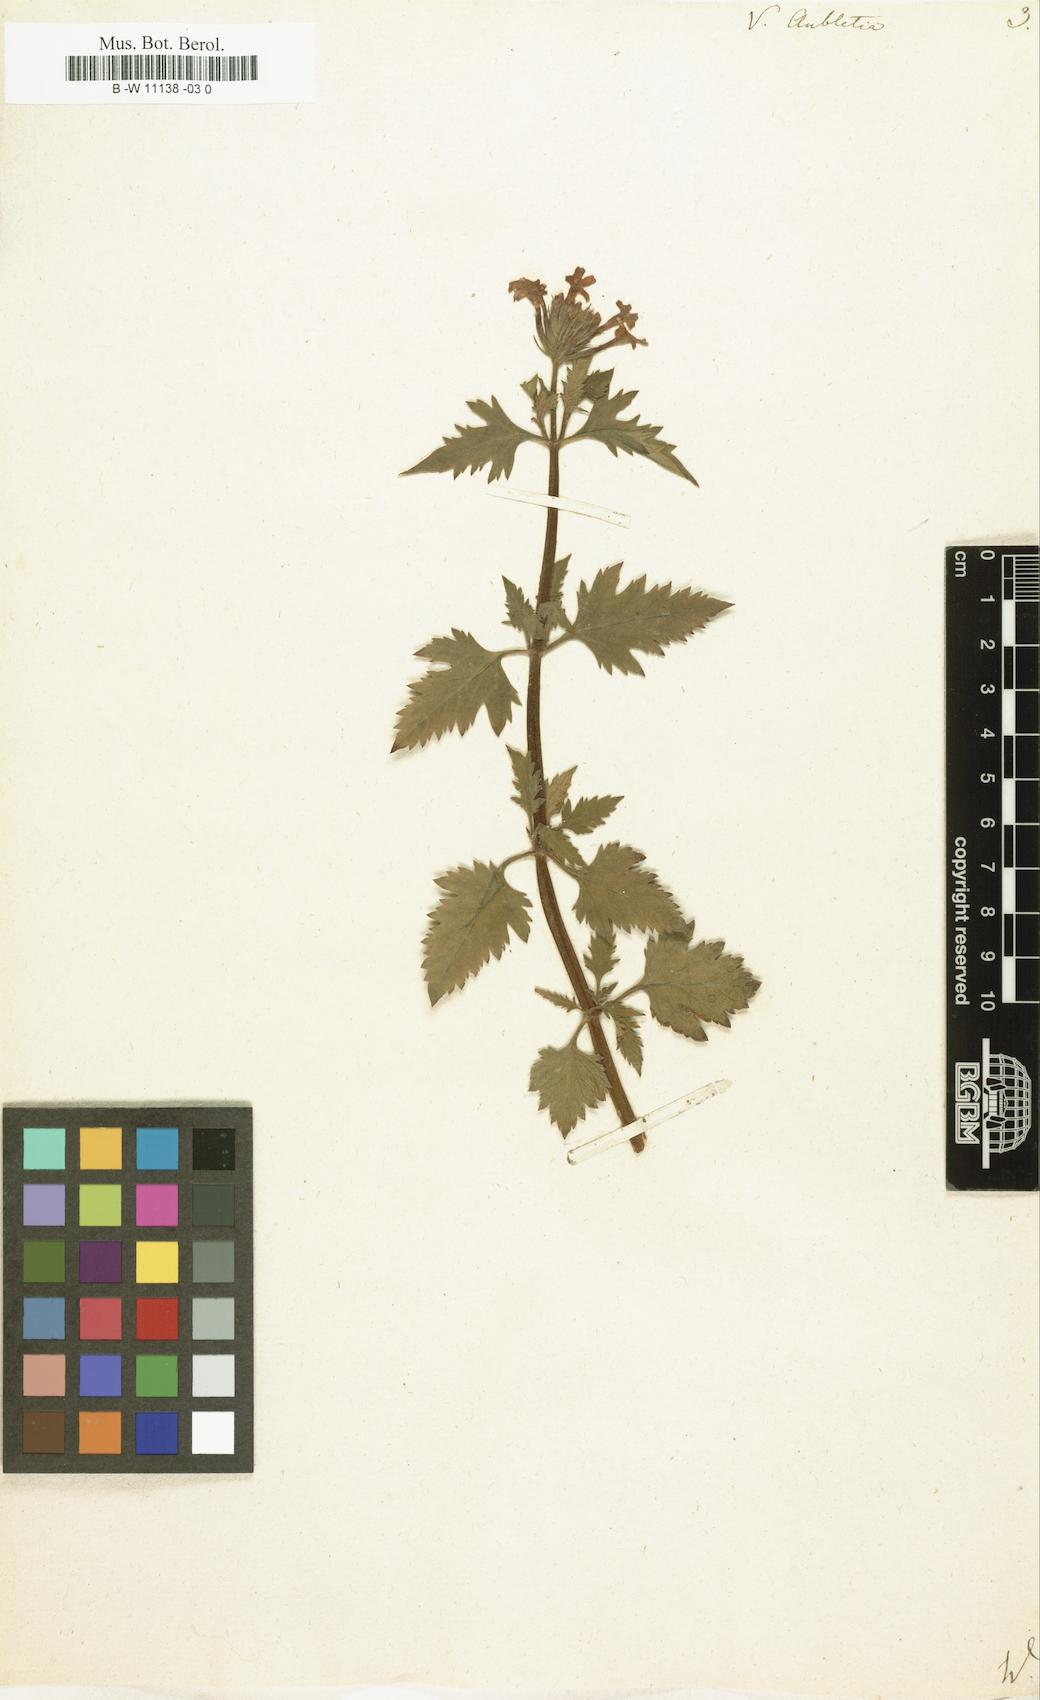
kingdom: Plantae
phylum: Tracheophyta
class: Magnoliopsida
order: Lamiales
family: Verbenaceae
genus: Verbena
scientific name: Verbena canadensis
